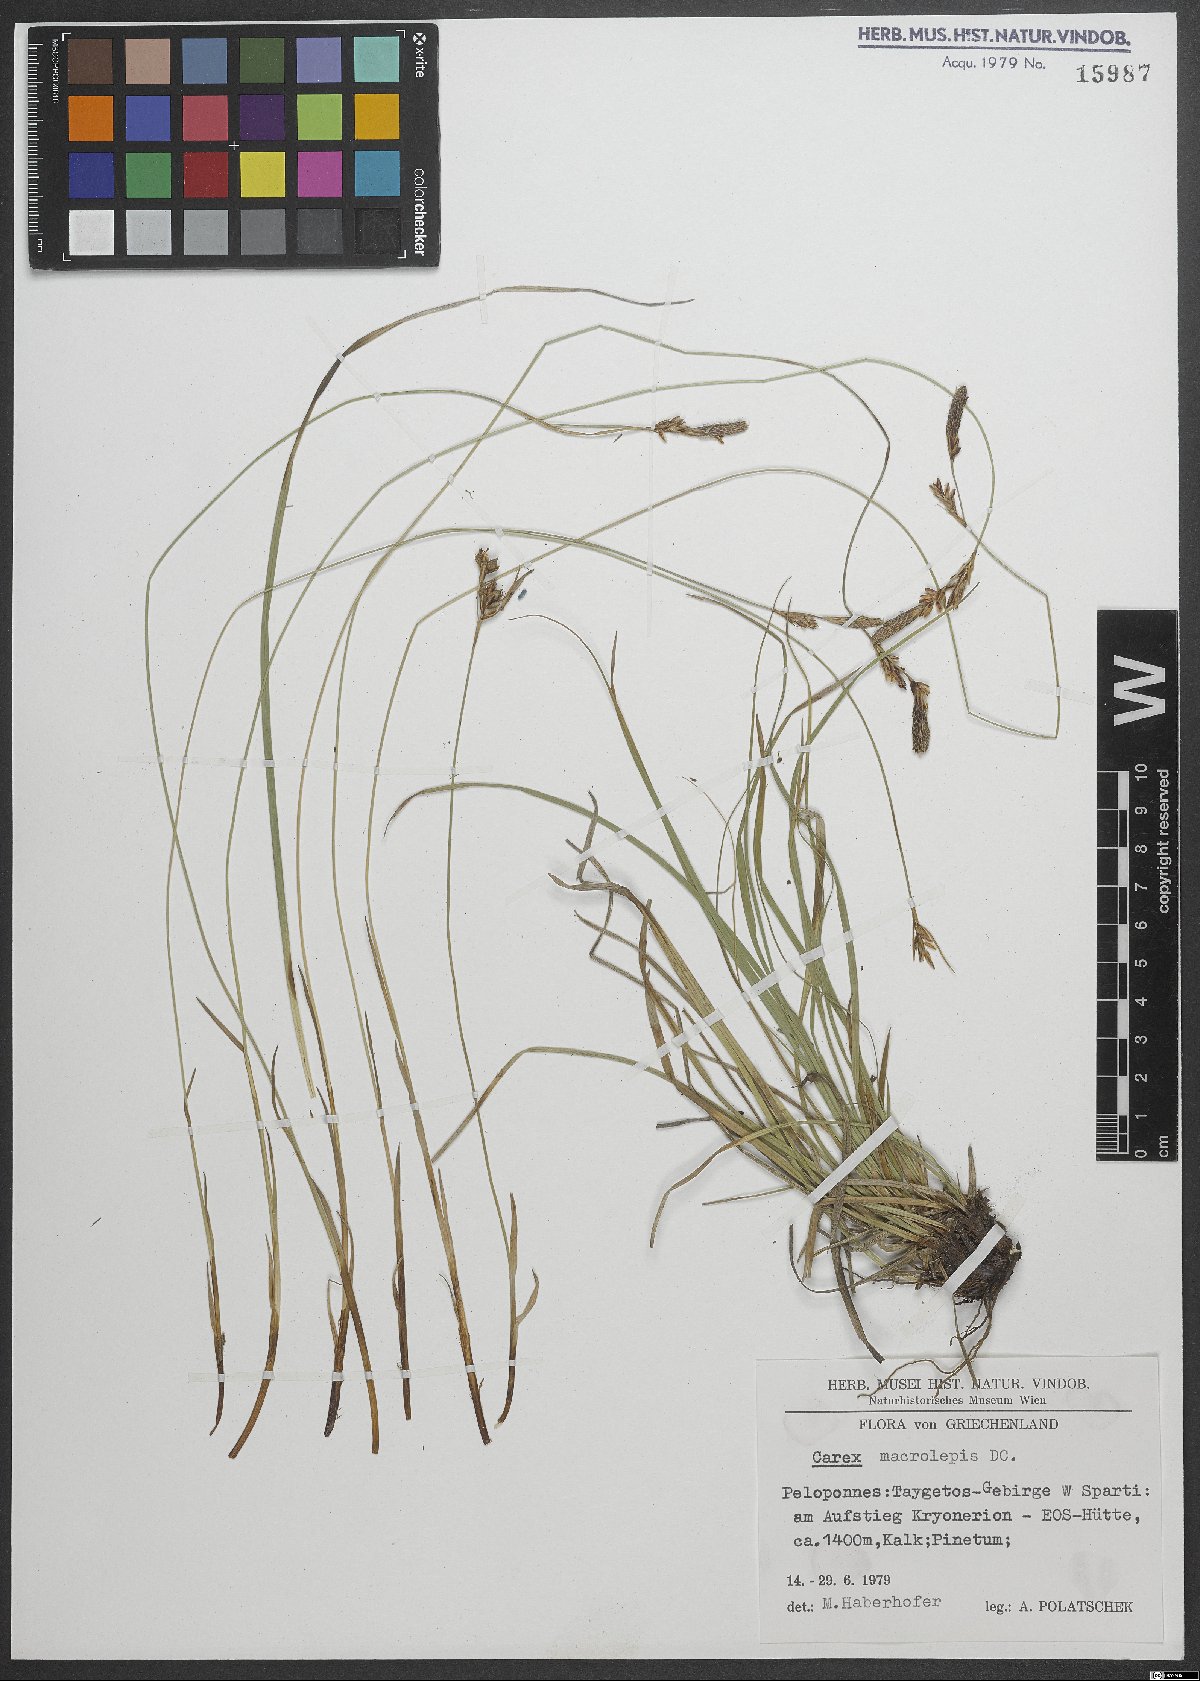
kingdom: Plantae
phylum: Tracheophyta
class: Liliopsida
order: Poales
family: Cyperaceae
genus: Carex
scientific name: Carex macrolepis
